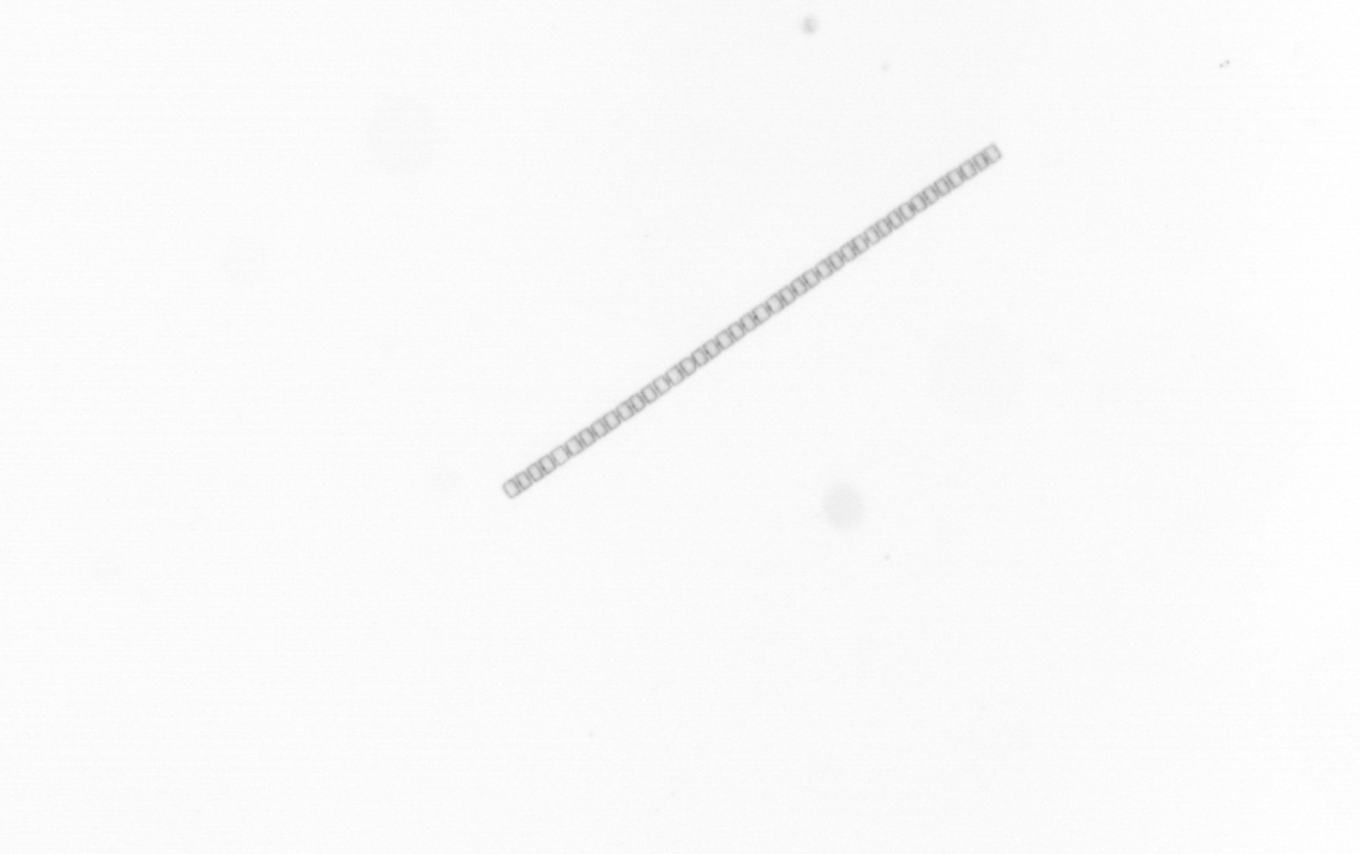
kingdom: Chromista
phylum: Ochrophyta
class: Bacillariophyceae
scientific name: Bacillariophyceae
